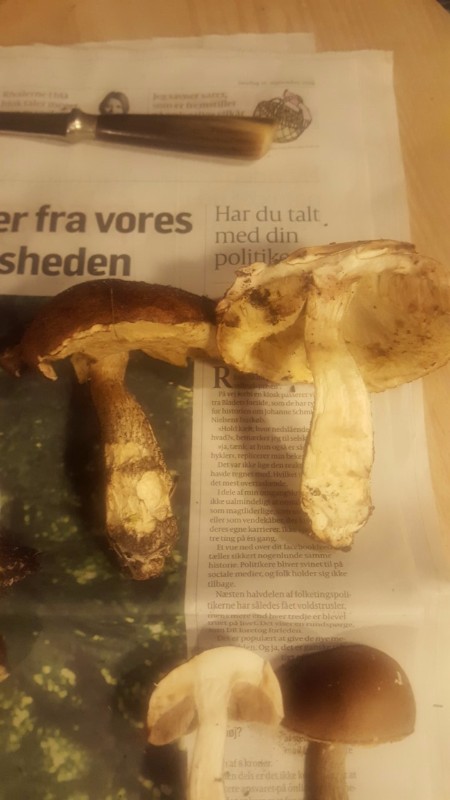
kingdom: Fungi
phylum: Basidiomycota
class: Agaricomycetes
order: Boletales
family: Boletaceae
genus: Leccinum
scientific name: Leccinum scabrum
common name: brun skælrørhat
